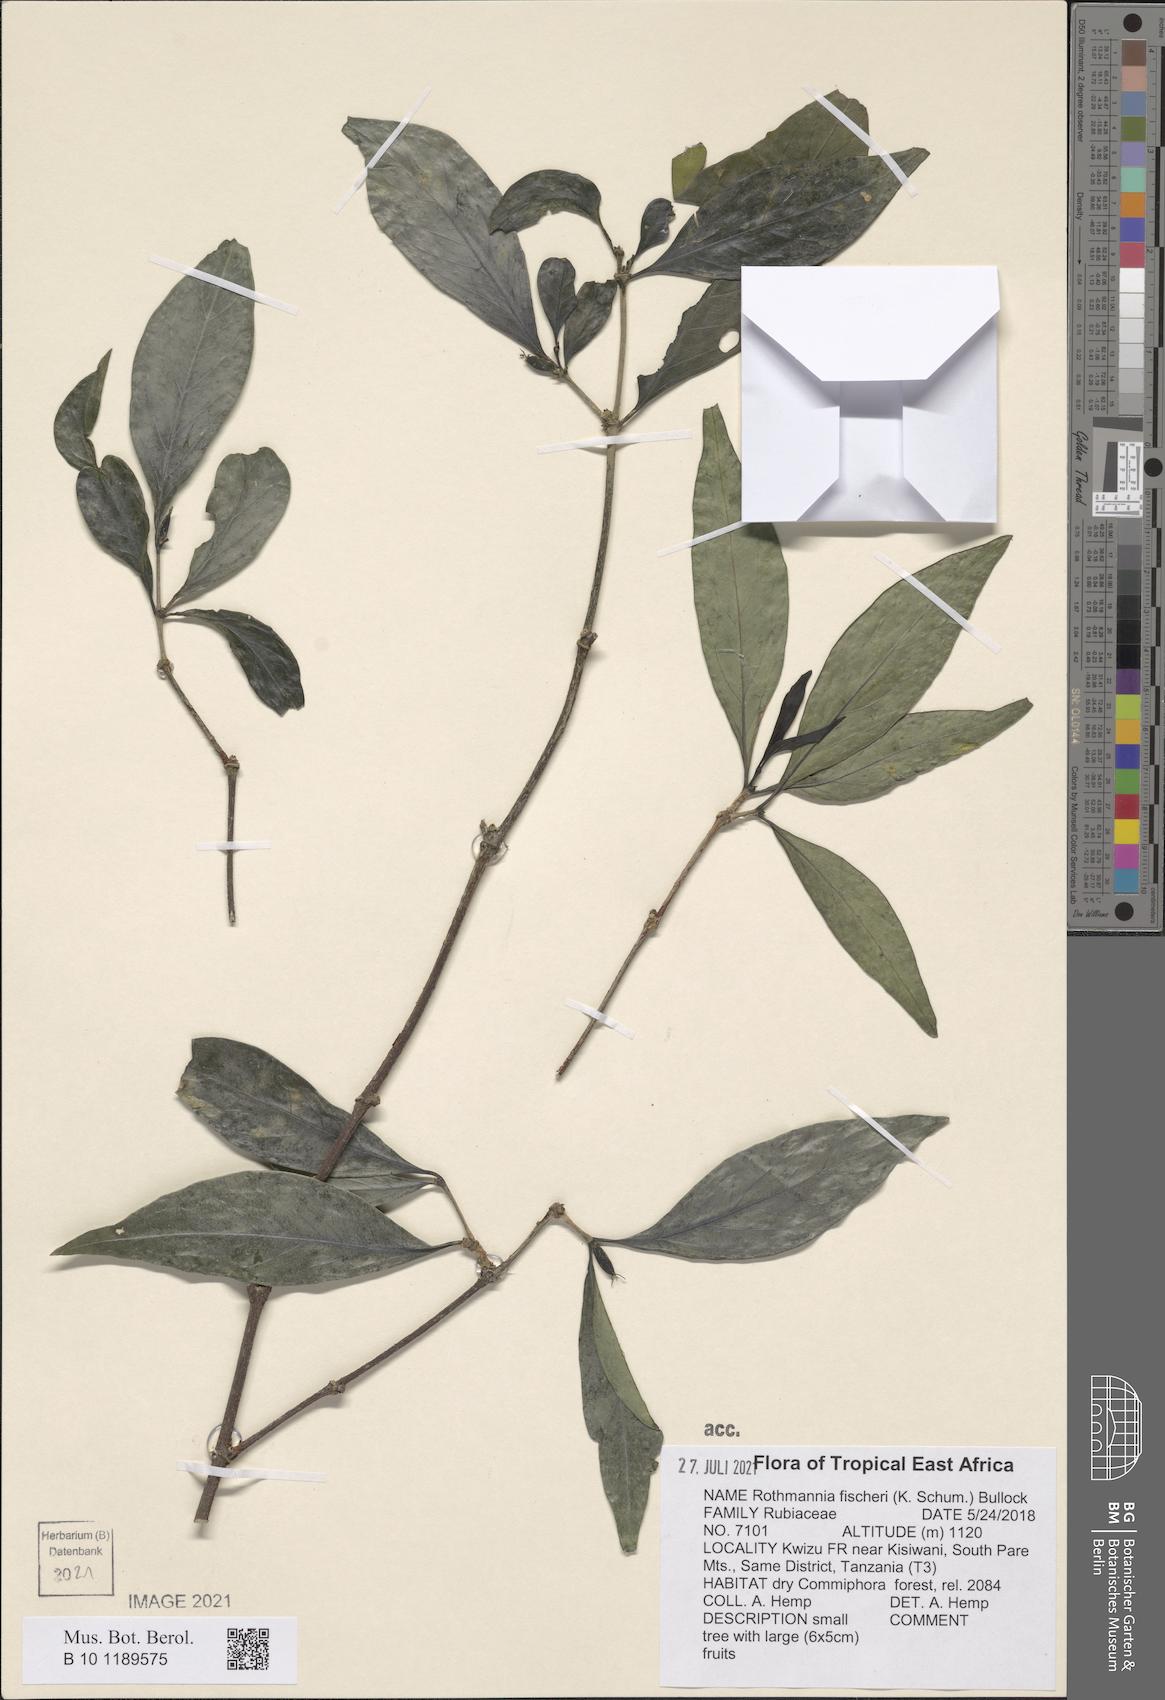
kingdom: Plantae
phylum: Tracheophyta
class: Magnoliopsida
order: Gentianales
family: Rubiaceae
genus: Rothmannia
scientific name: Rothmannia fischeri
